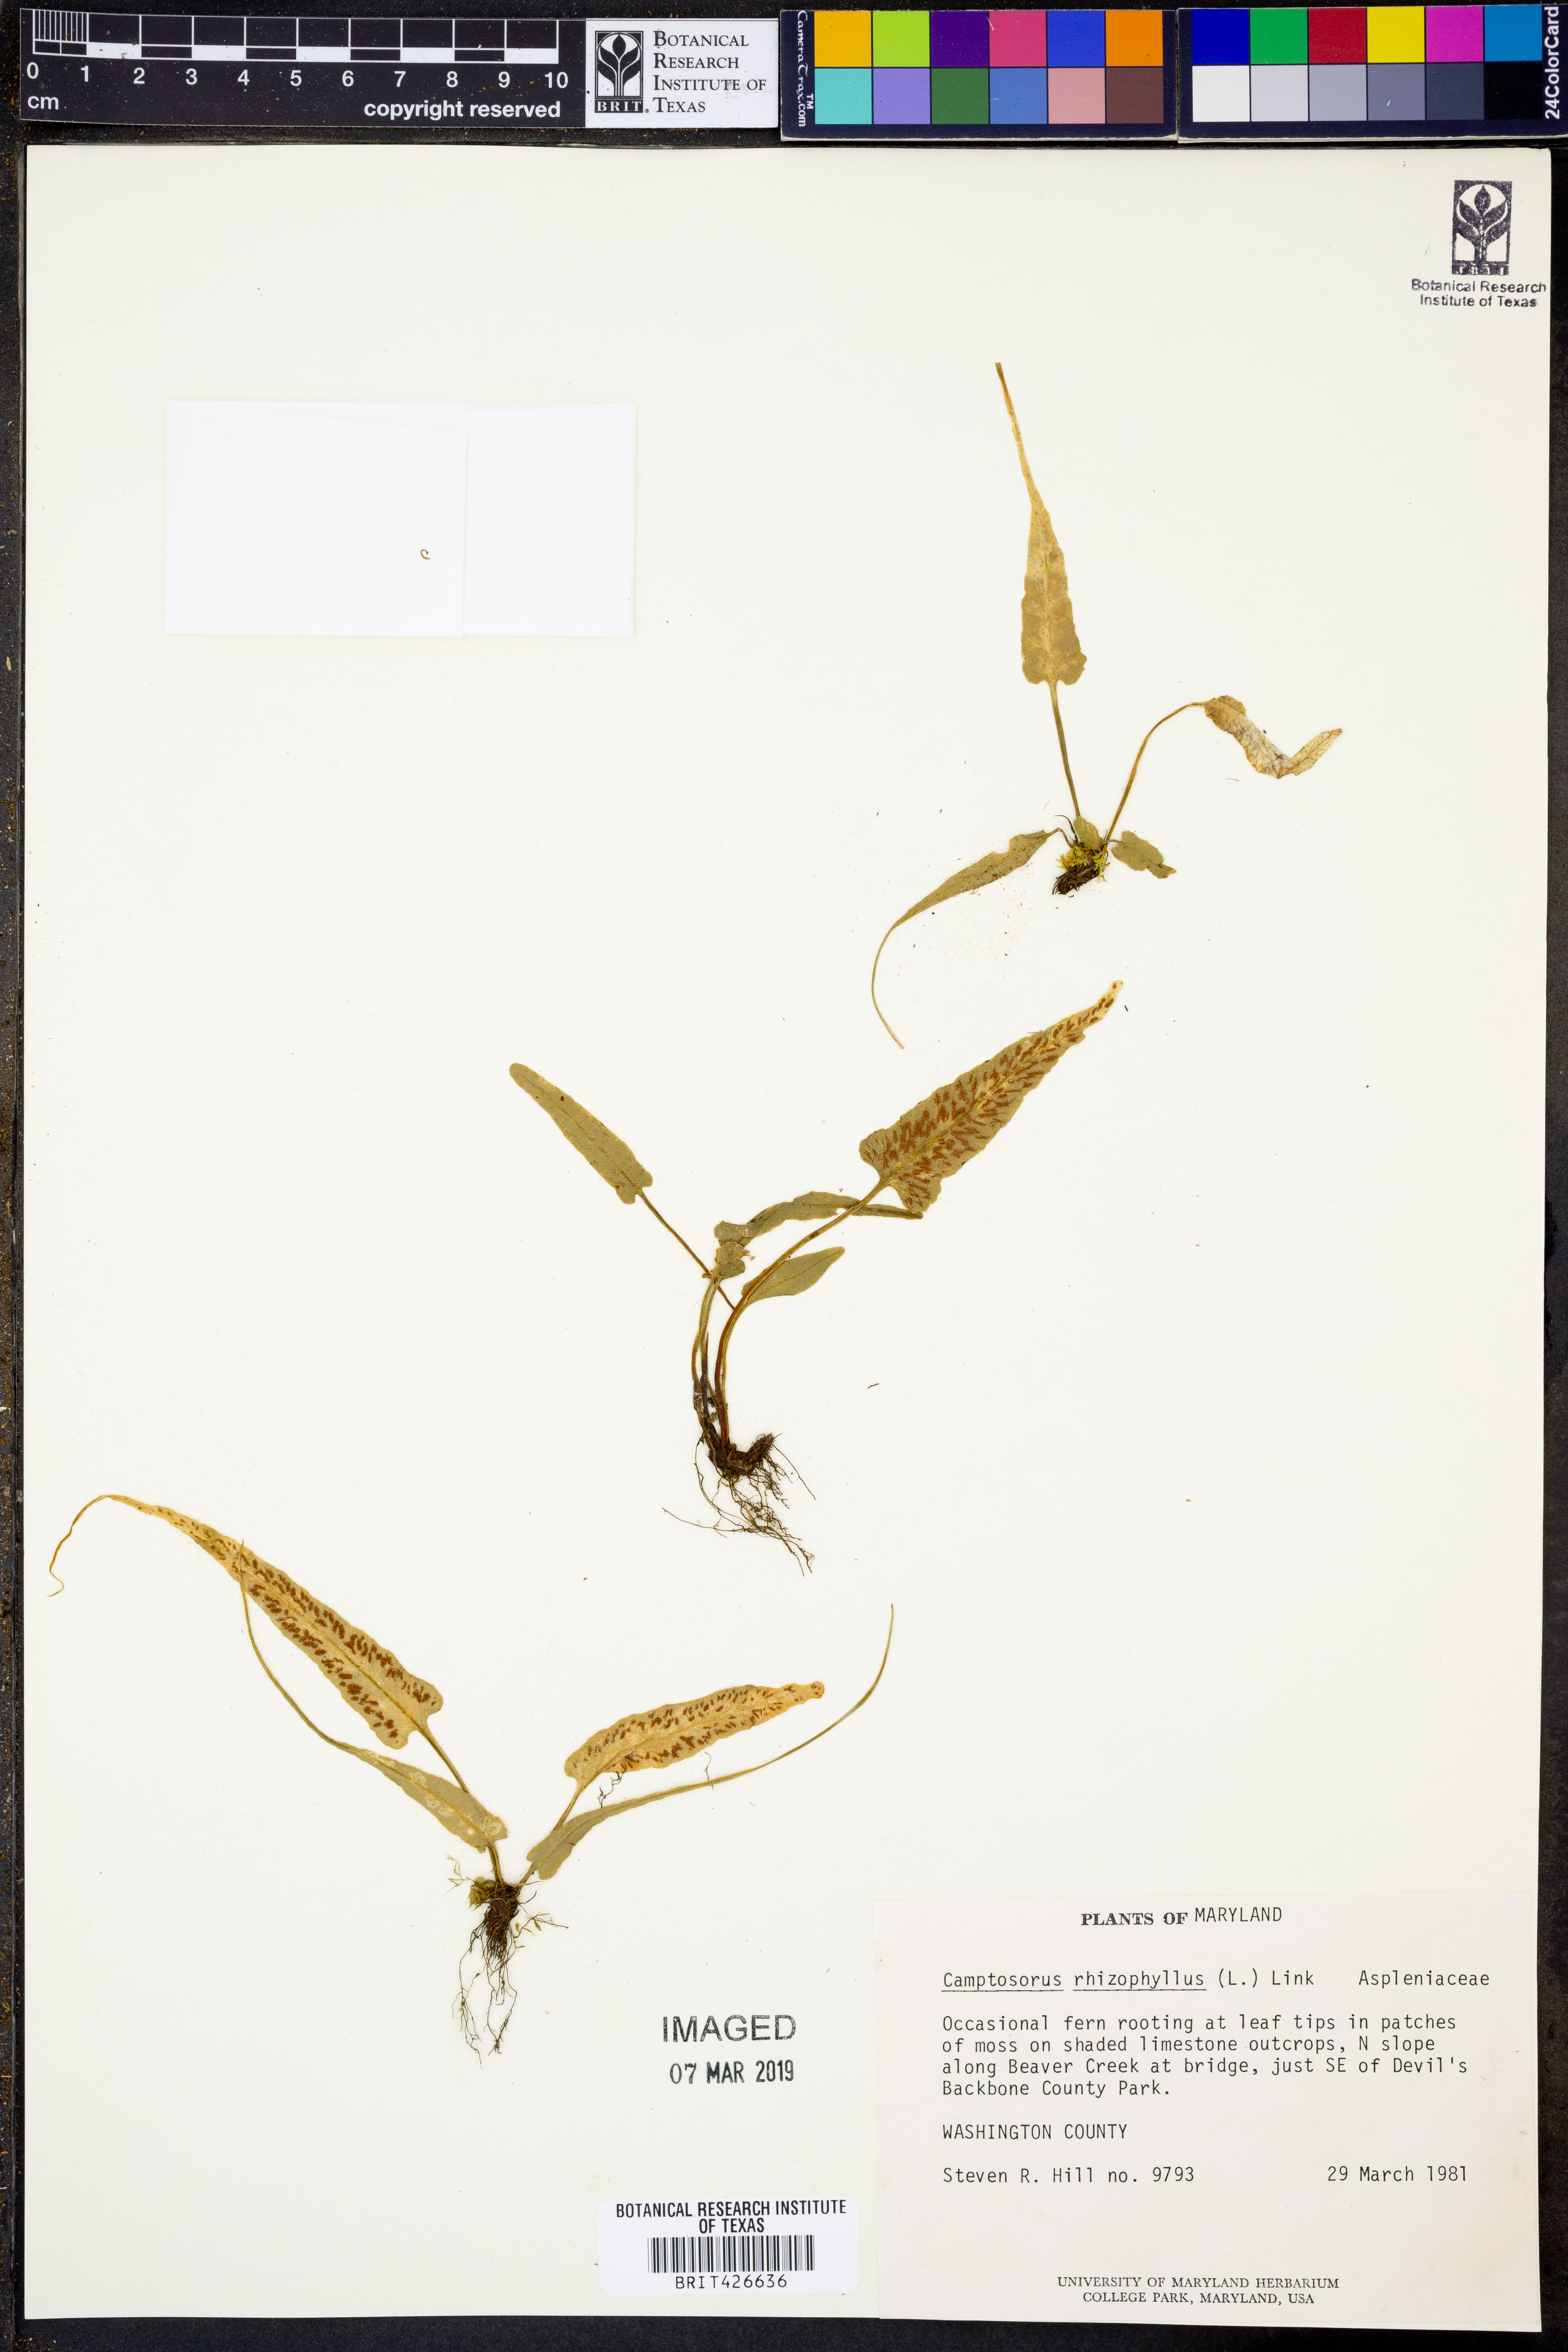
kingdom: Plantae
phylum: Tracheophyta
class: Polypodiopsida
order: Polypodiales
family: Aspleniaceae
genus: Asplenium
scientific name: Asplenium rhizophyllum
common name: Walking fern
